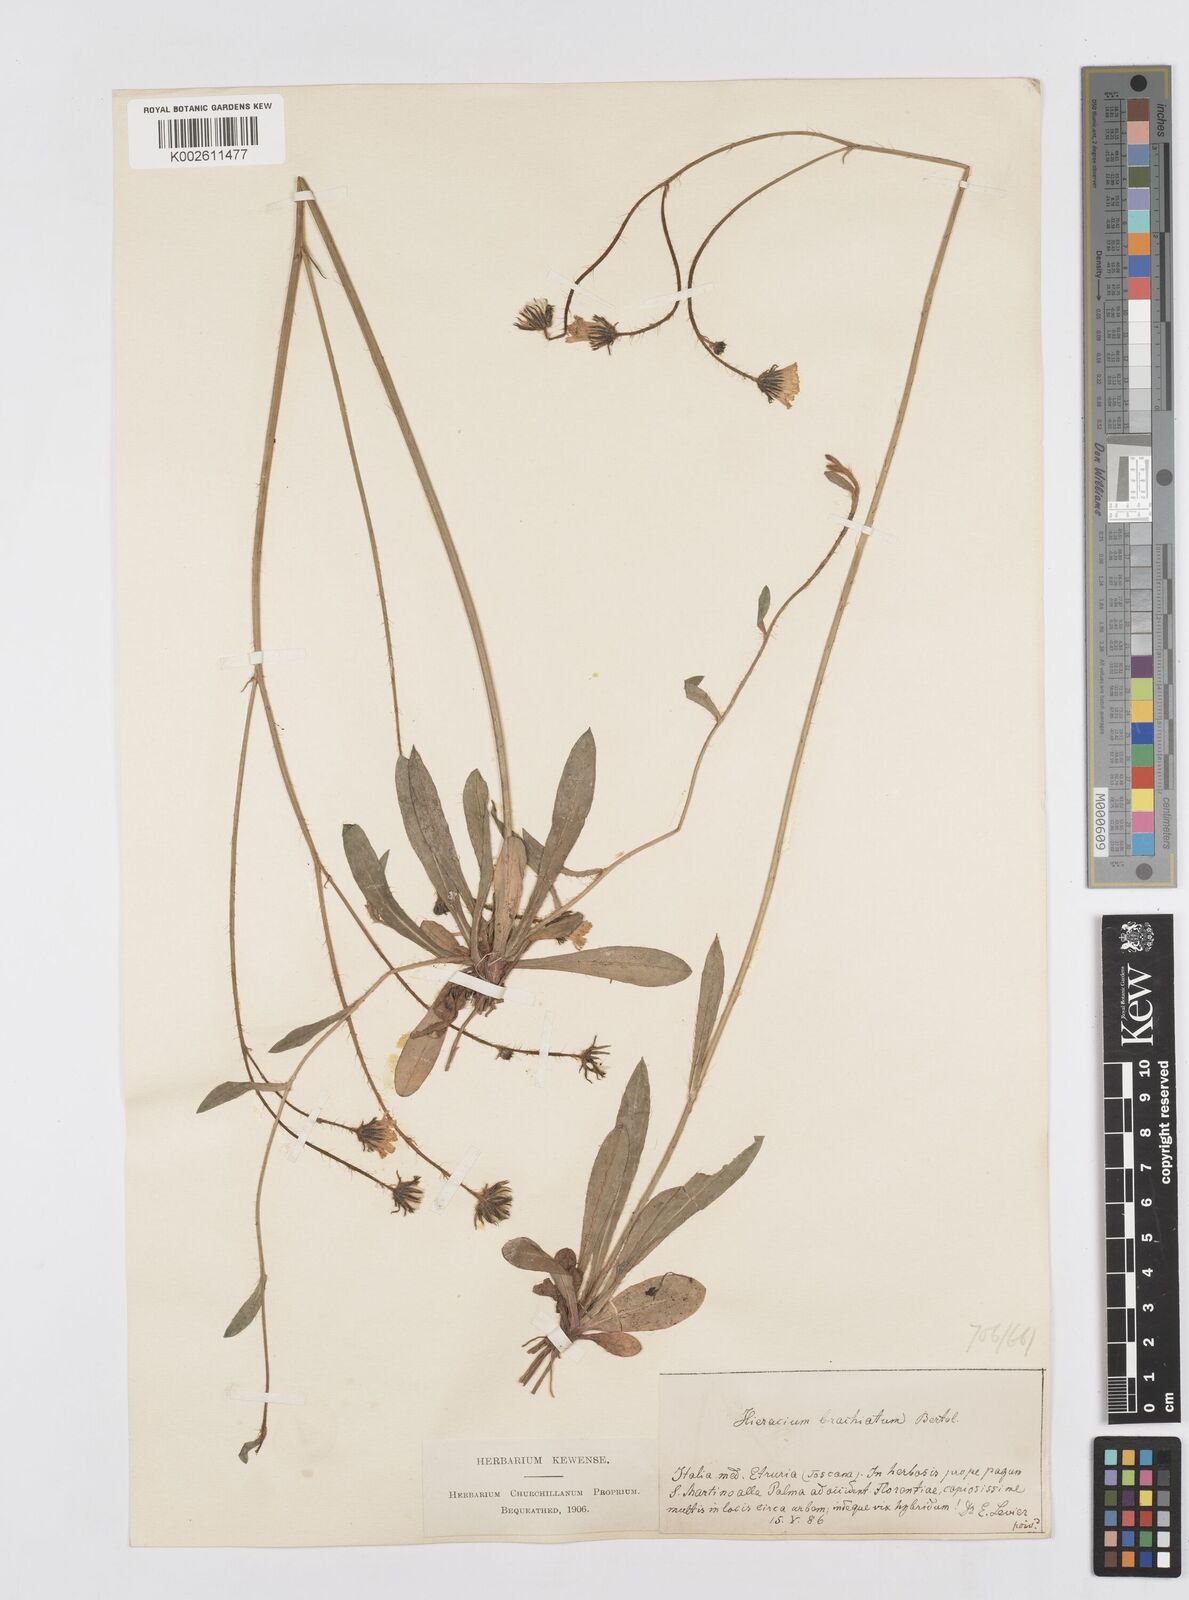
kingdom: Plantae
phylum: Tracheophyta
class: Magnoliopsida
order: Asterales
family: Asteraceae
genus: Pilosella
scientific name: Pilosella acutifolia
